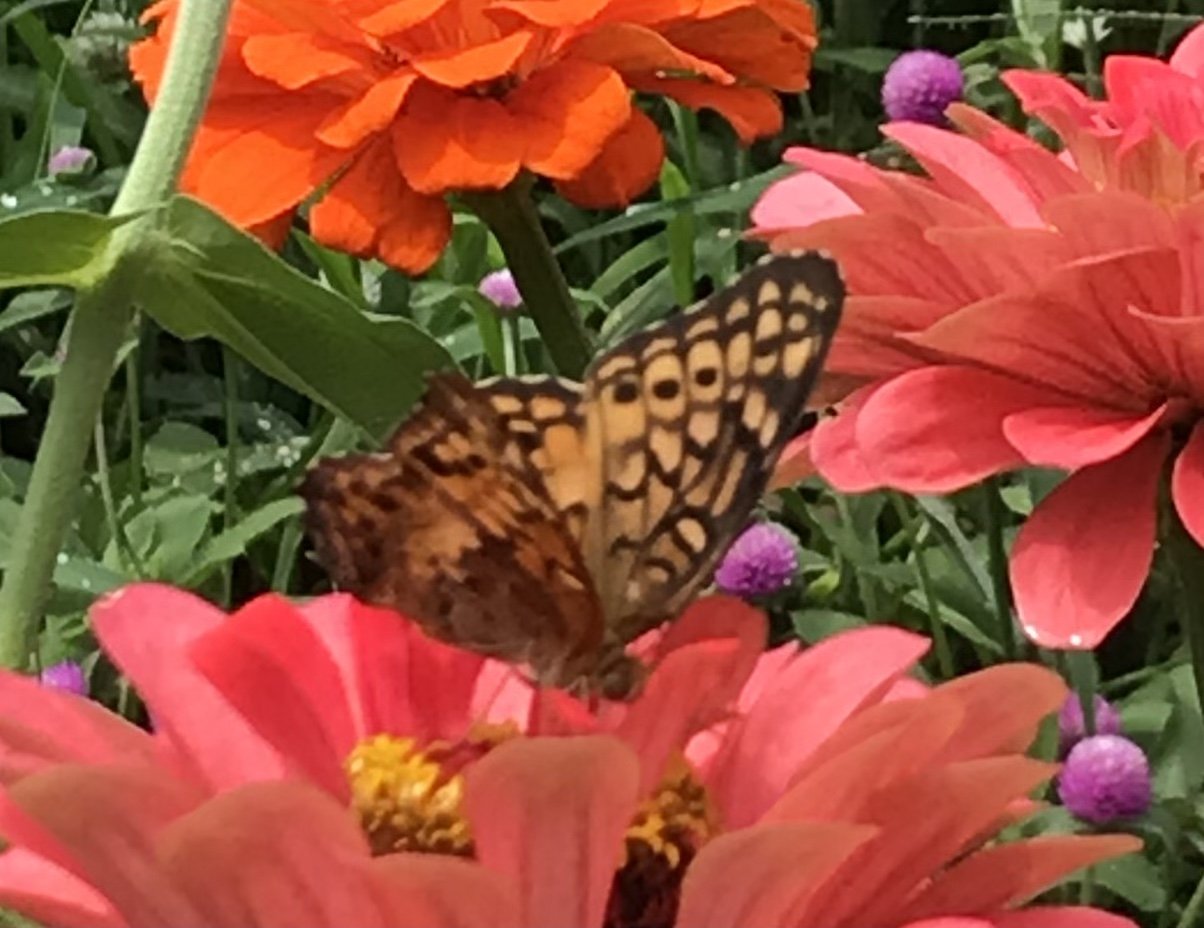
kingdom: Animalia
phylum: Arthropoda
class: Insecta
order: Lepidoptera
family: Nymphalidae
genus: Euptoieta
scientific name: Euptoieta claudia
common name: Variegated Fritillary
